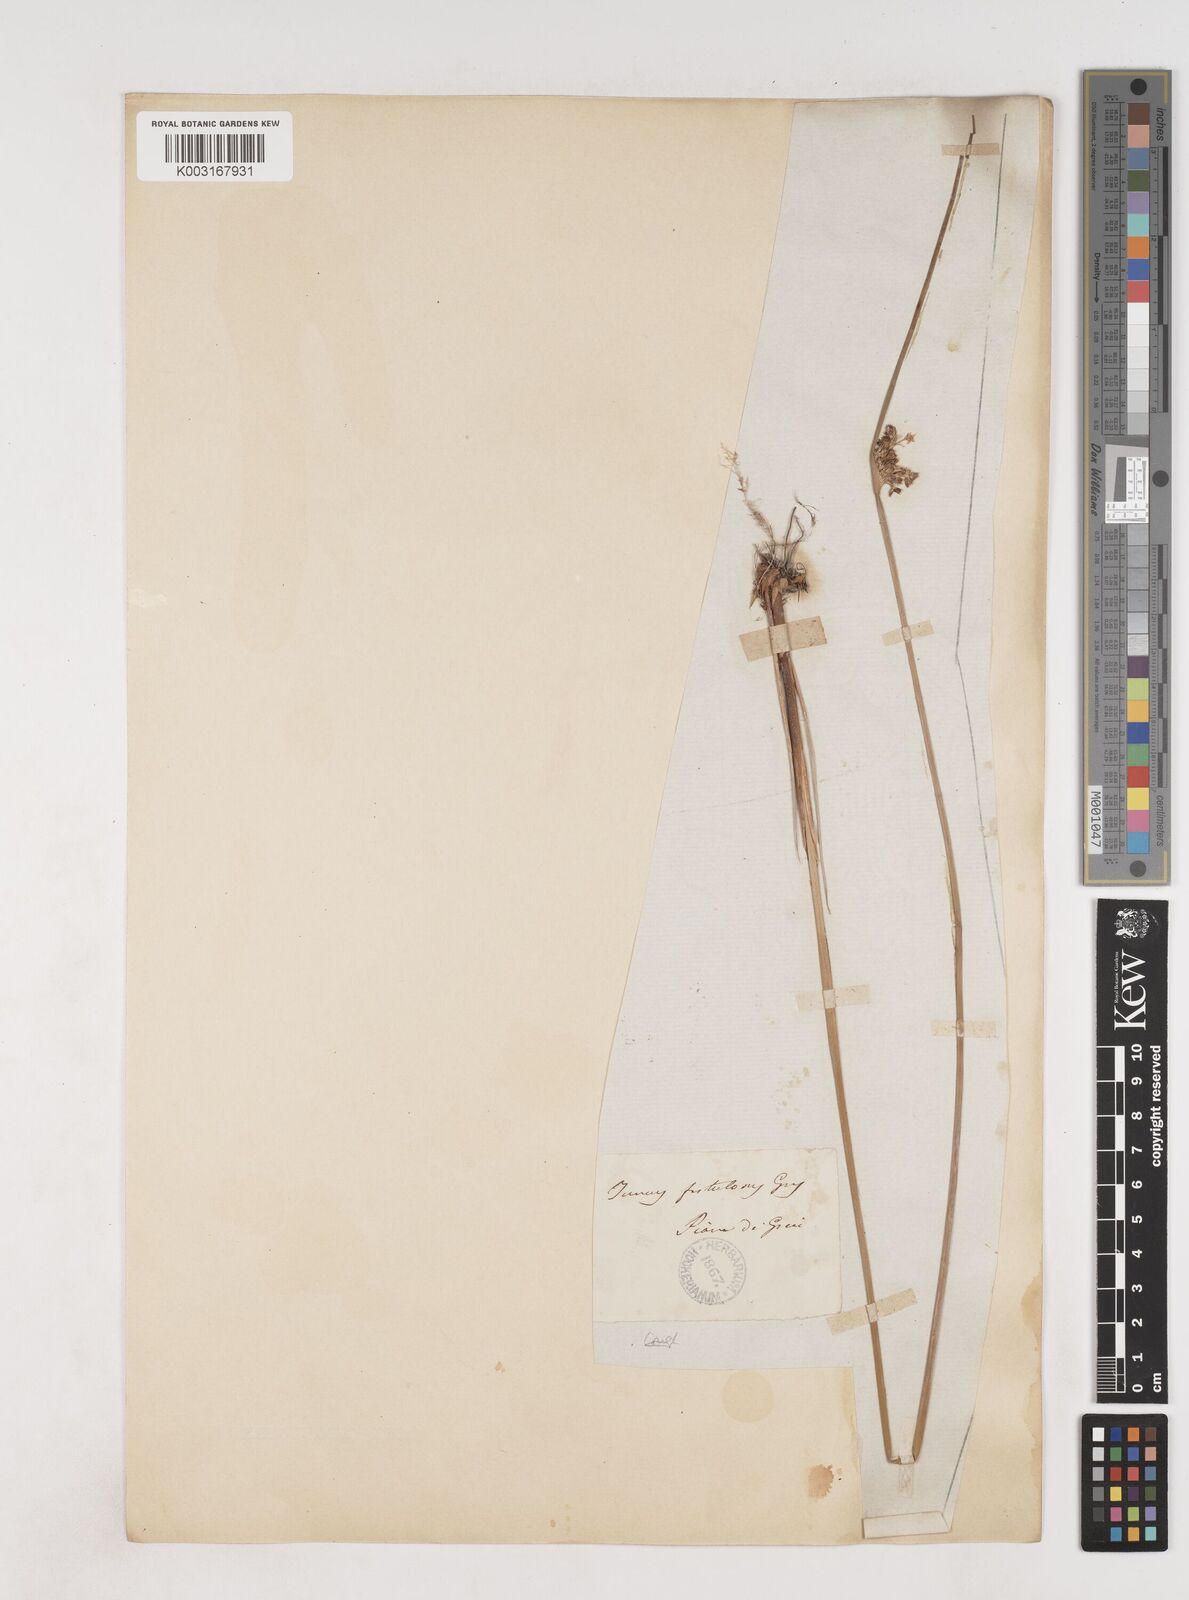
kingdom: Plantae
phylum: Tracheophyta
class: Liliopsida
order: Poales
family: Juncaceae
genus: Juncus
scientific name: Juncus effusus
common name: Soft rush
